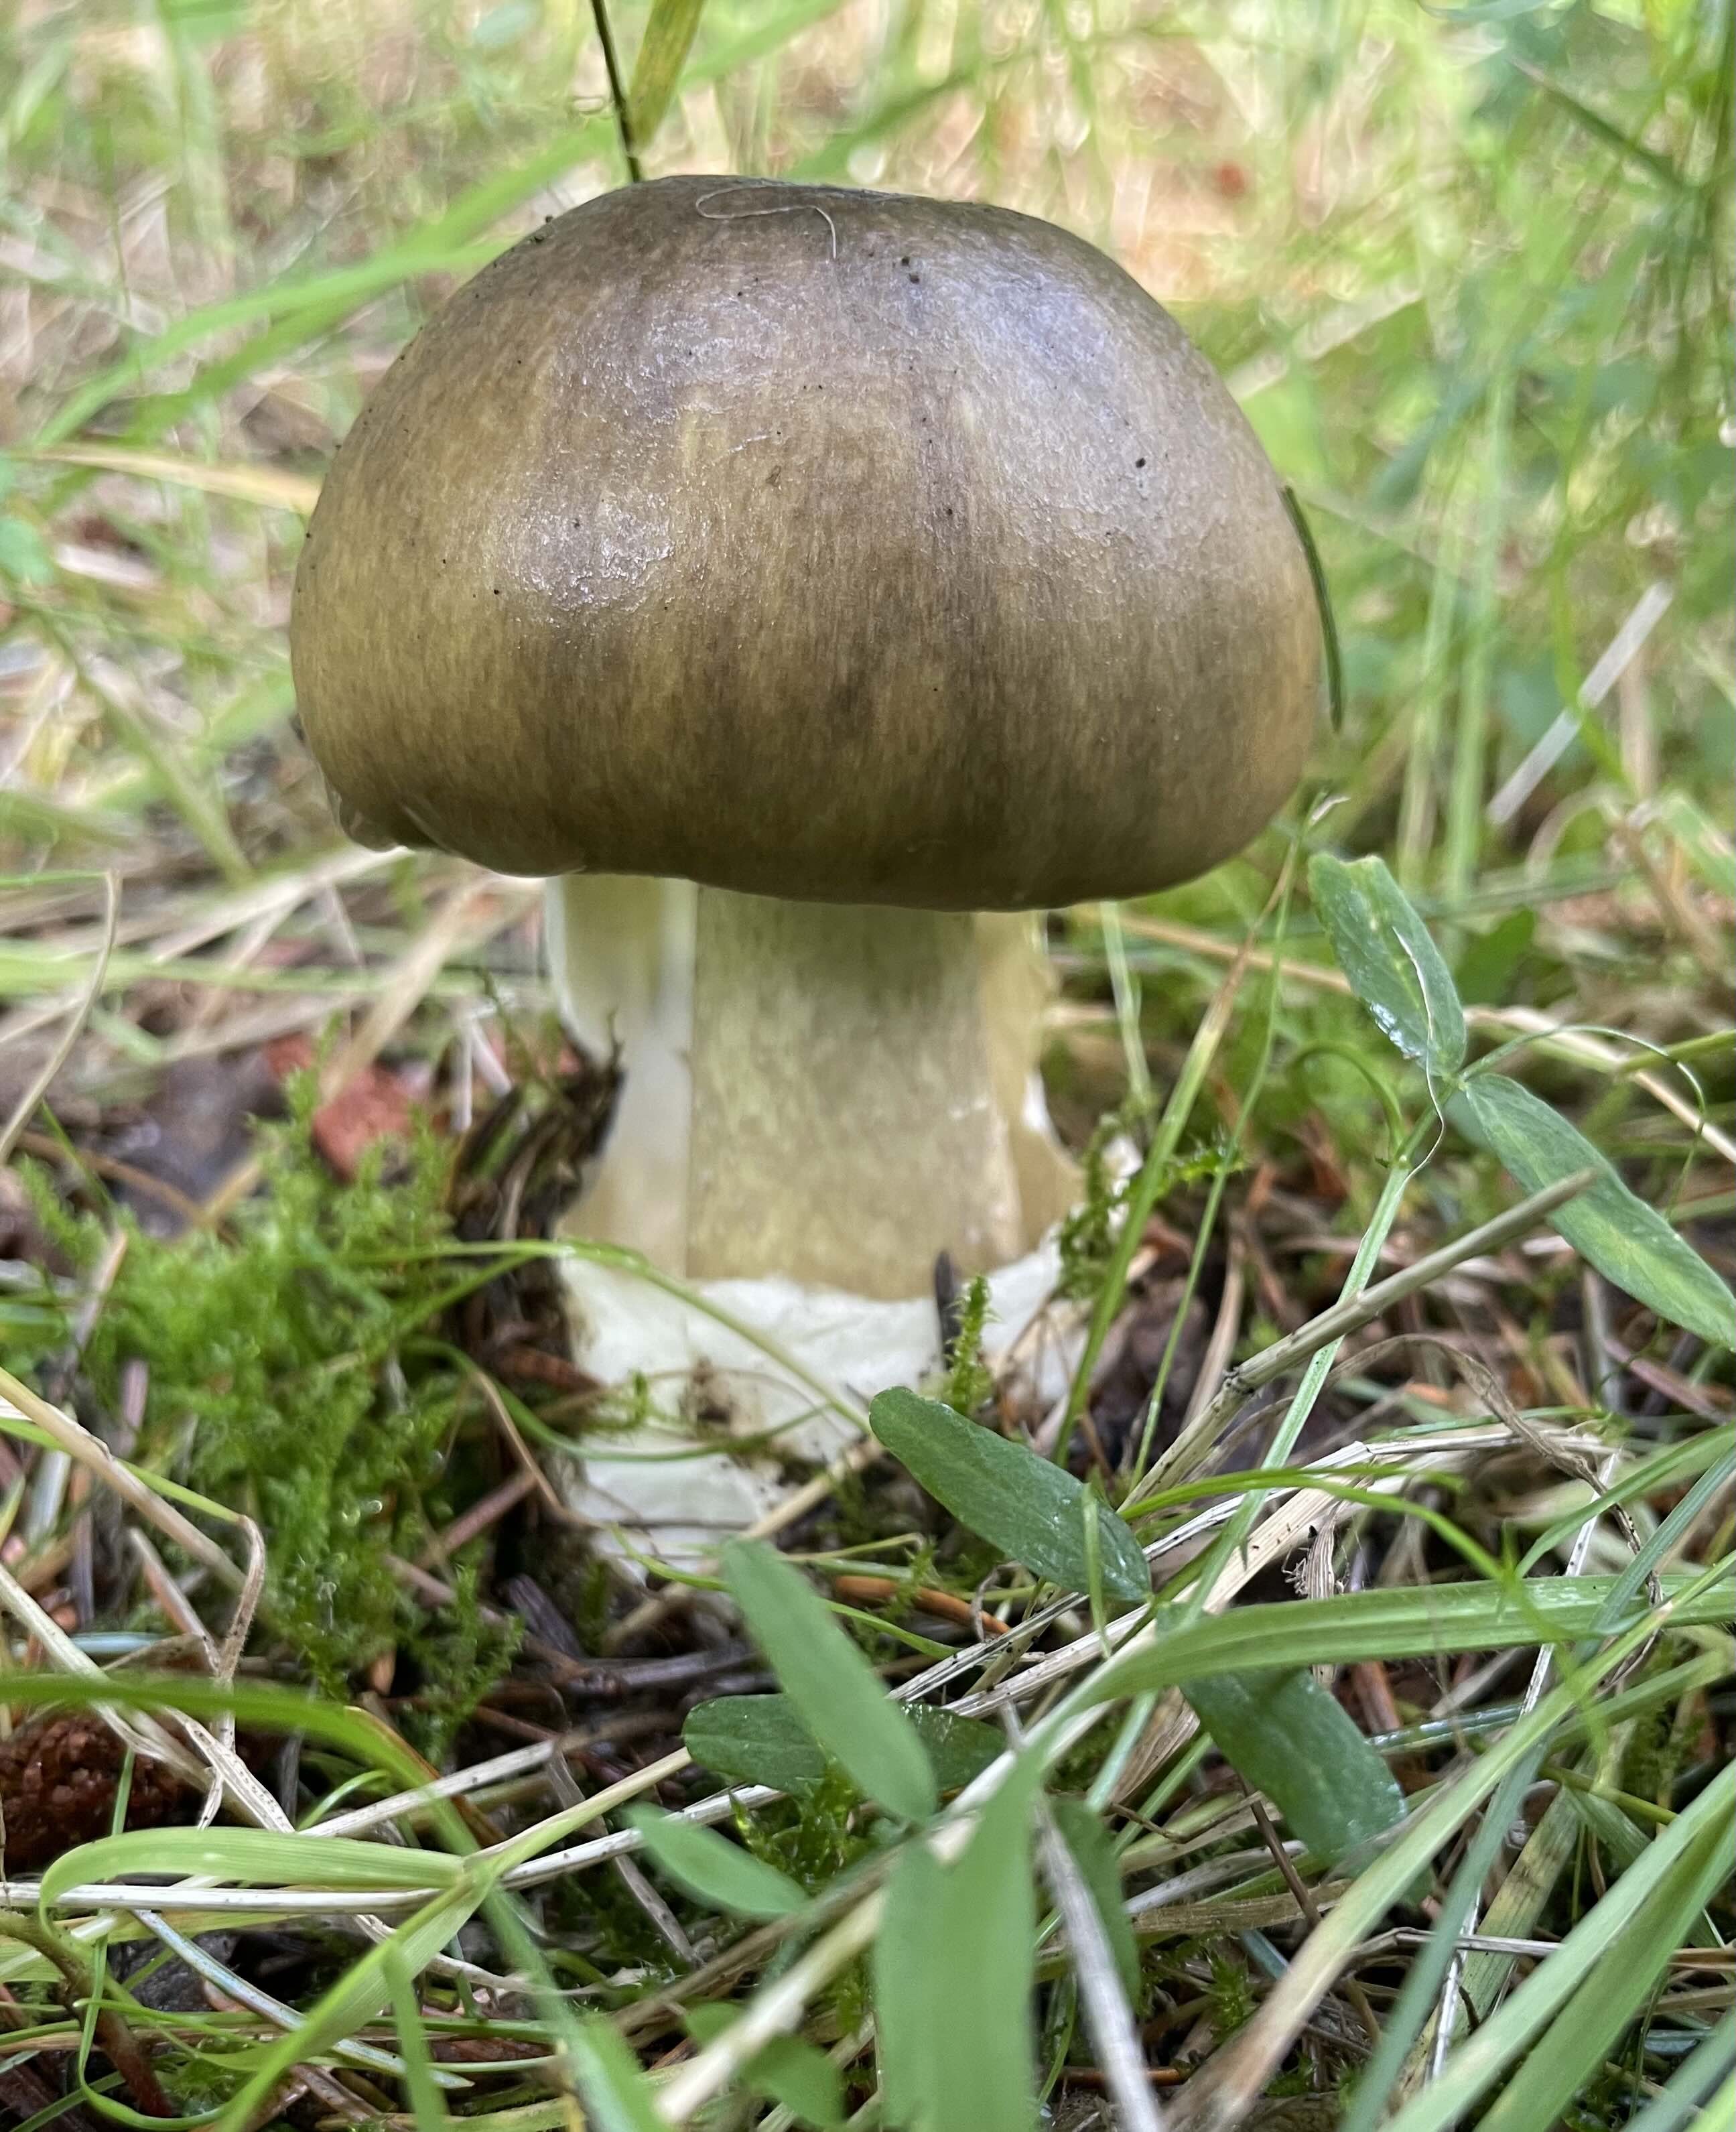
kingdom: Fungi
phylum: Basidiomycota
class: Agaricomycetes
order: Agaricales
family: Amanitaceae
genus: Amanita
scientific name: Amanita phalloides
